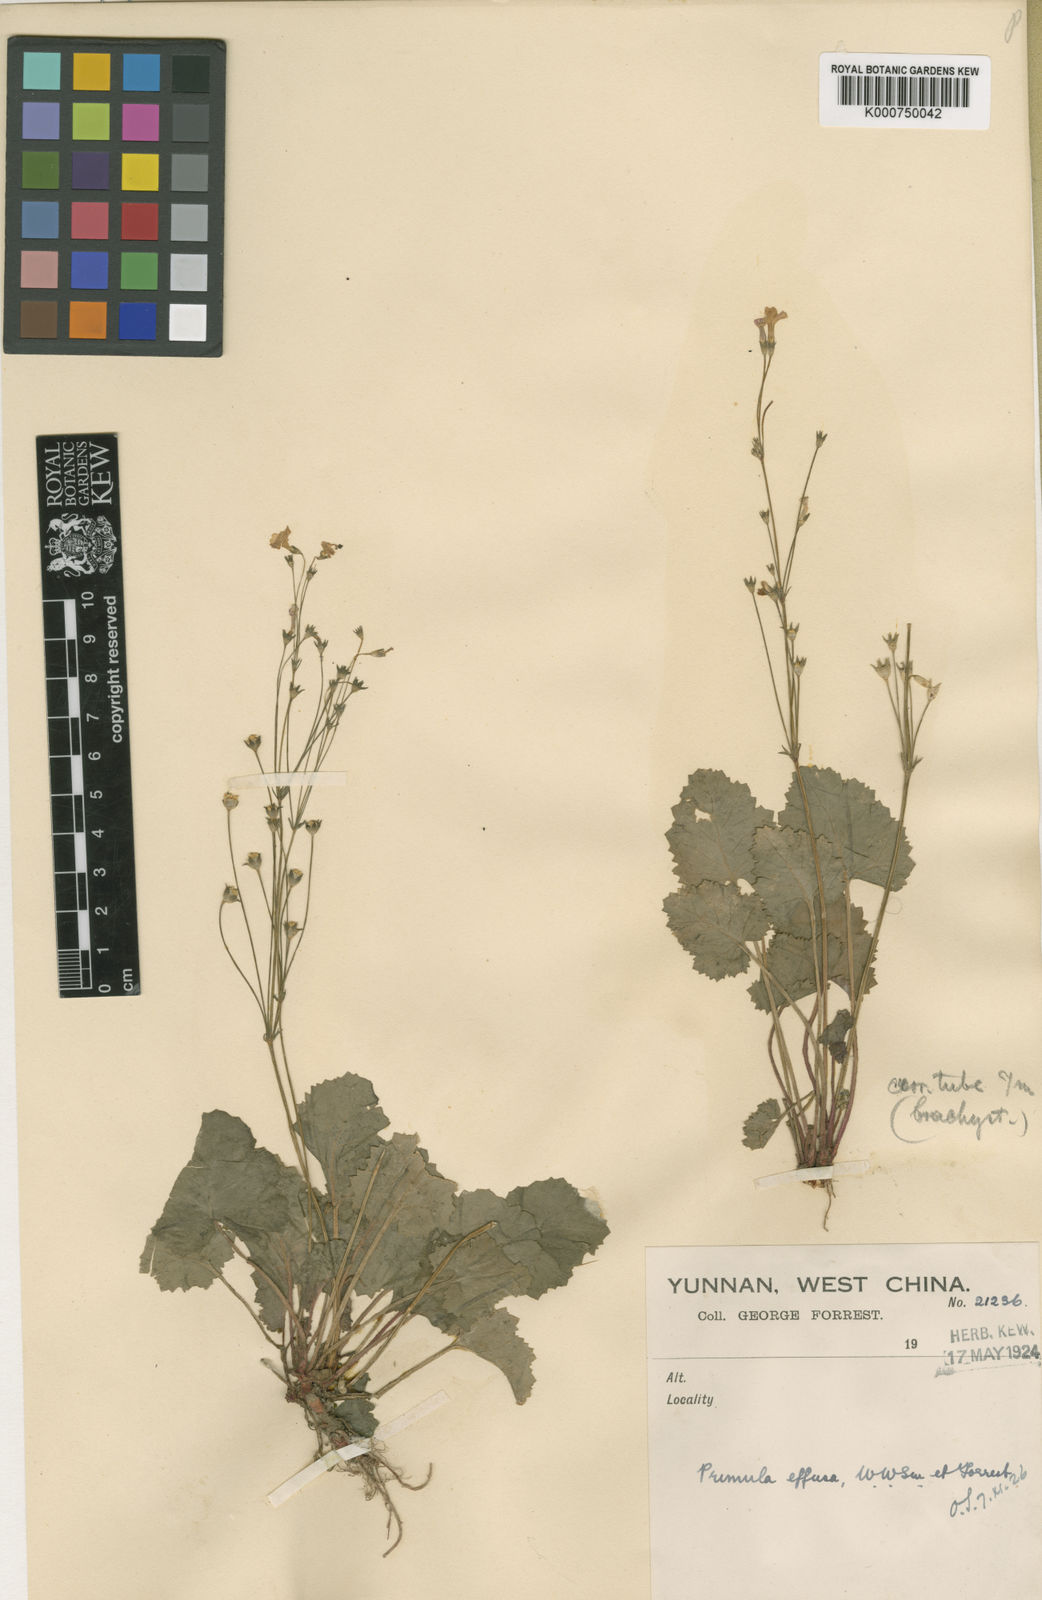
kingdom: Plantae
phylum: Tracheophyta
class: Magnoliopsida
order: Ericales
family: Primulaceae
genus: Primula
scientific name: Primula effusa
